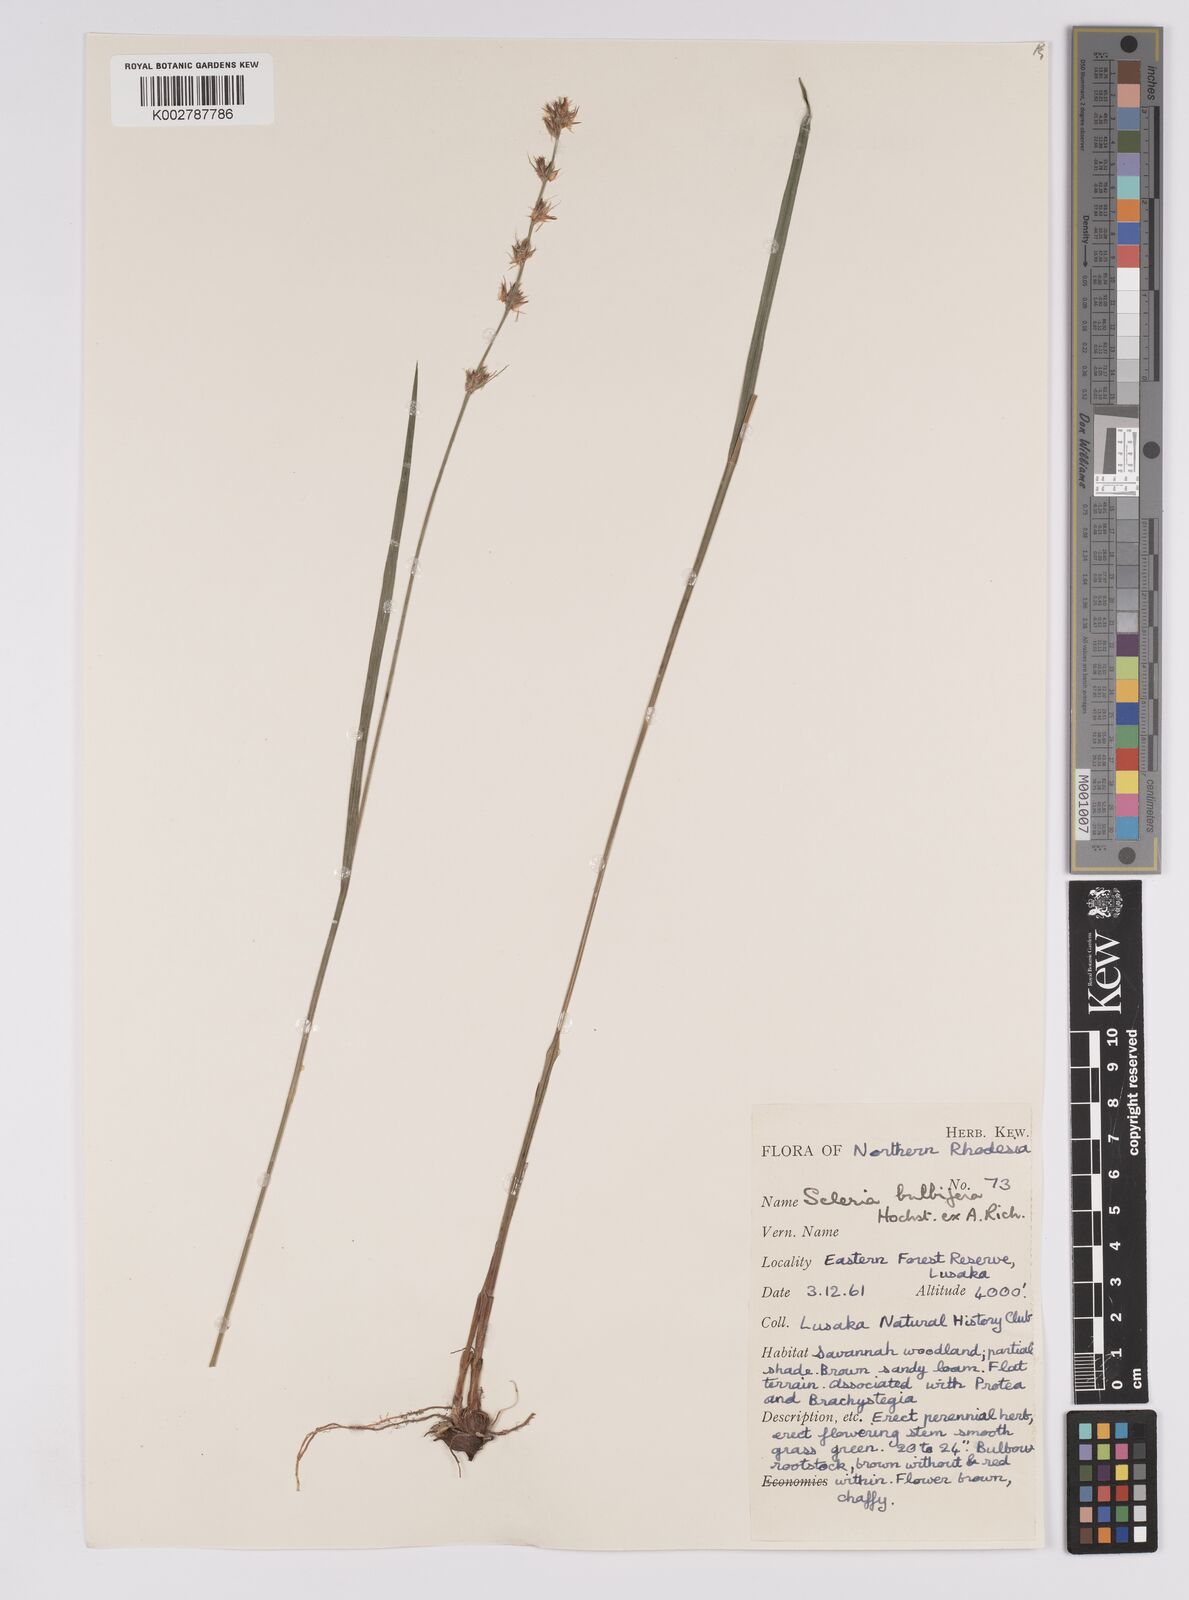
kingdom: Plantae
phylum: Tracheophyta
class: Liliopsida
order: Poales
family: Cyperaceae
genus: Scleria
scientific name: Scleria bulbifera
